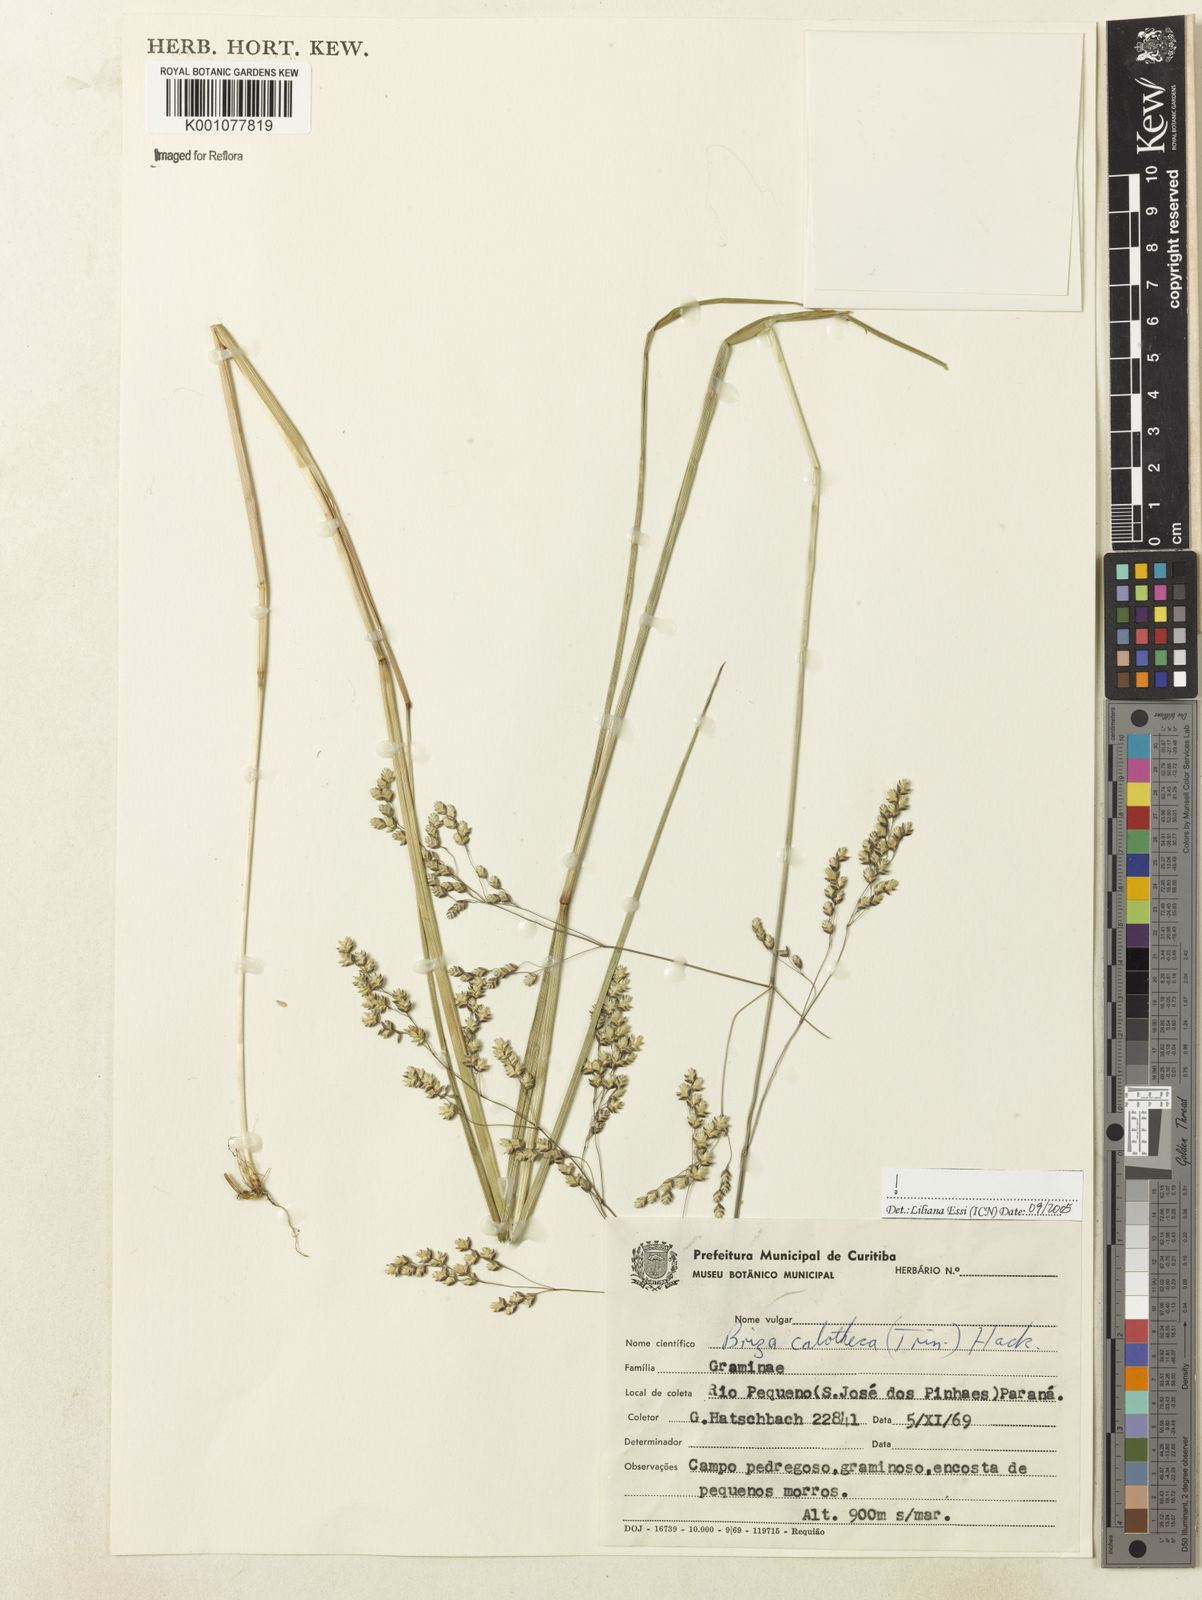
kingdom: Plantae
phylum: Tracheophyta
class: Liliopsida
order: Poales
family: Poaceae
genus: Poidium
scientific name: Poidium calotheca
